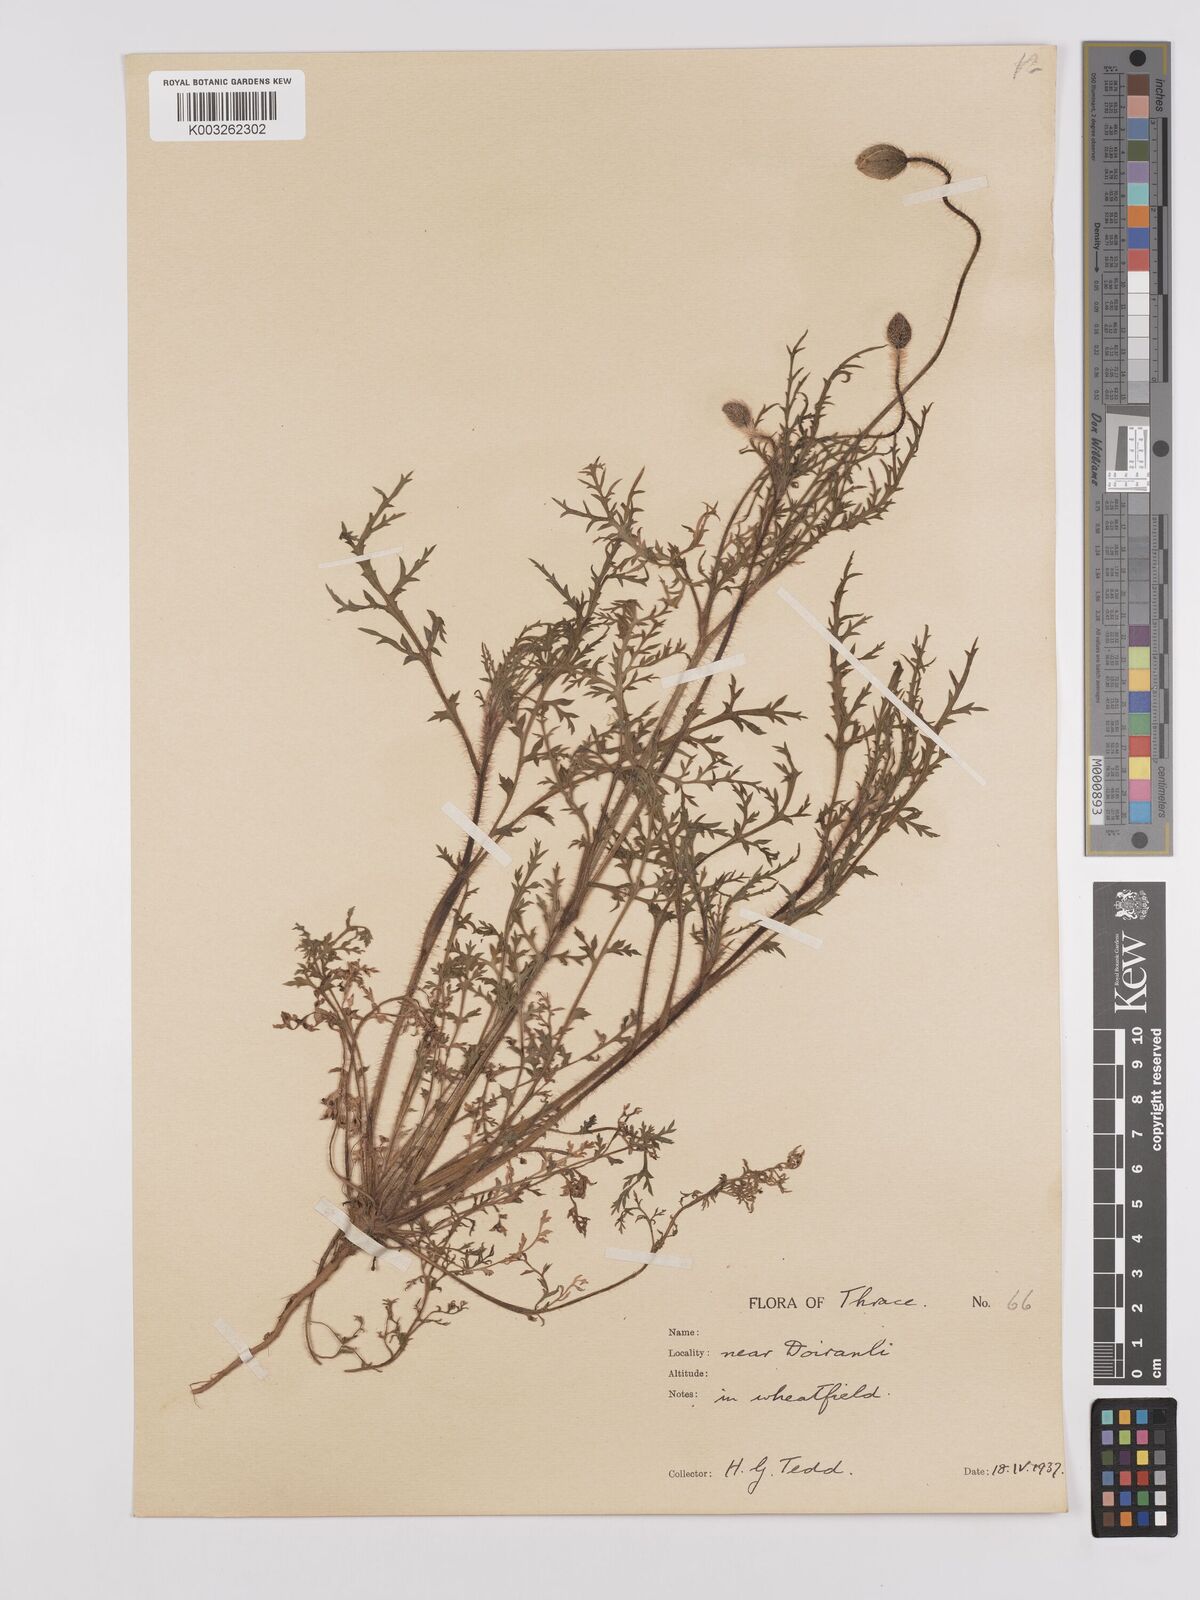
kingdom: Plantae
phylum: Tracheophyta
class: Magnoliopsida
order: Ranunculales
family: Papaveraceae
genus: Papaver
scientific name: Papaver rhoeas
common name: Corn poppy
